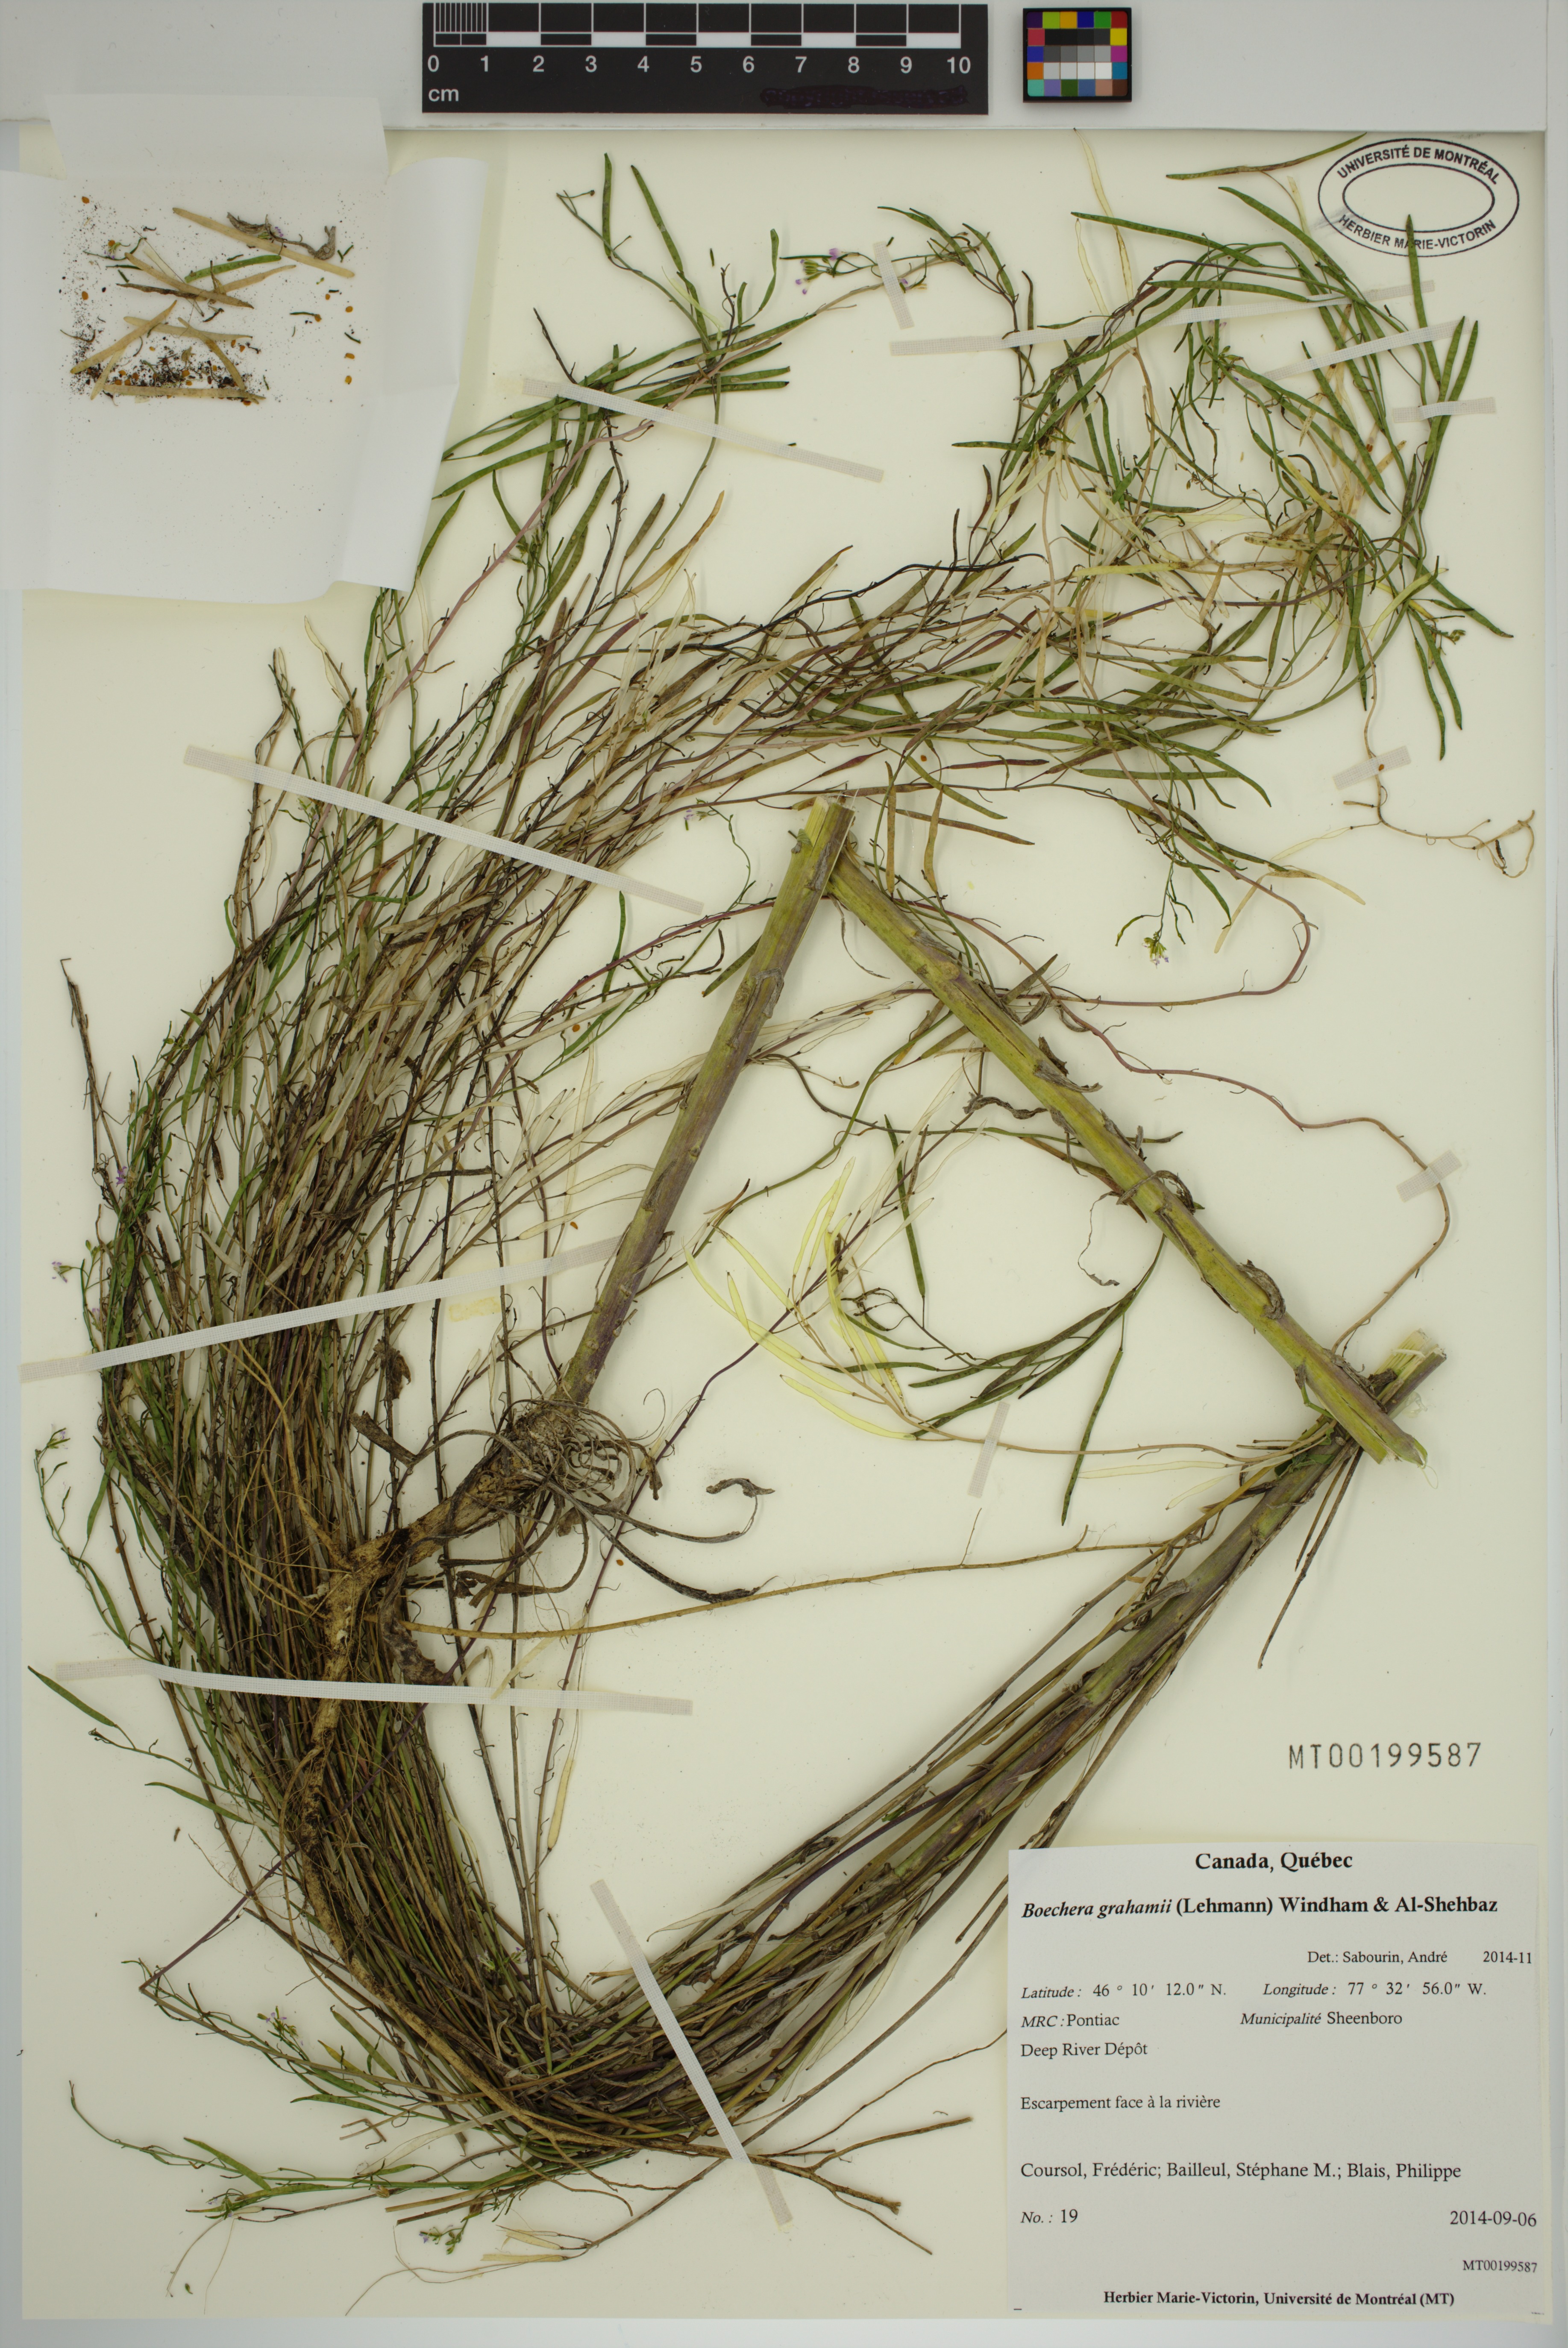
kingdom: Plantae
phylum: Tracheophyta
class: Magnoliopsida
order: Brassicales
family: Brassicaceae
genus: Boechera
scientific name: Boechera
